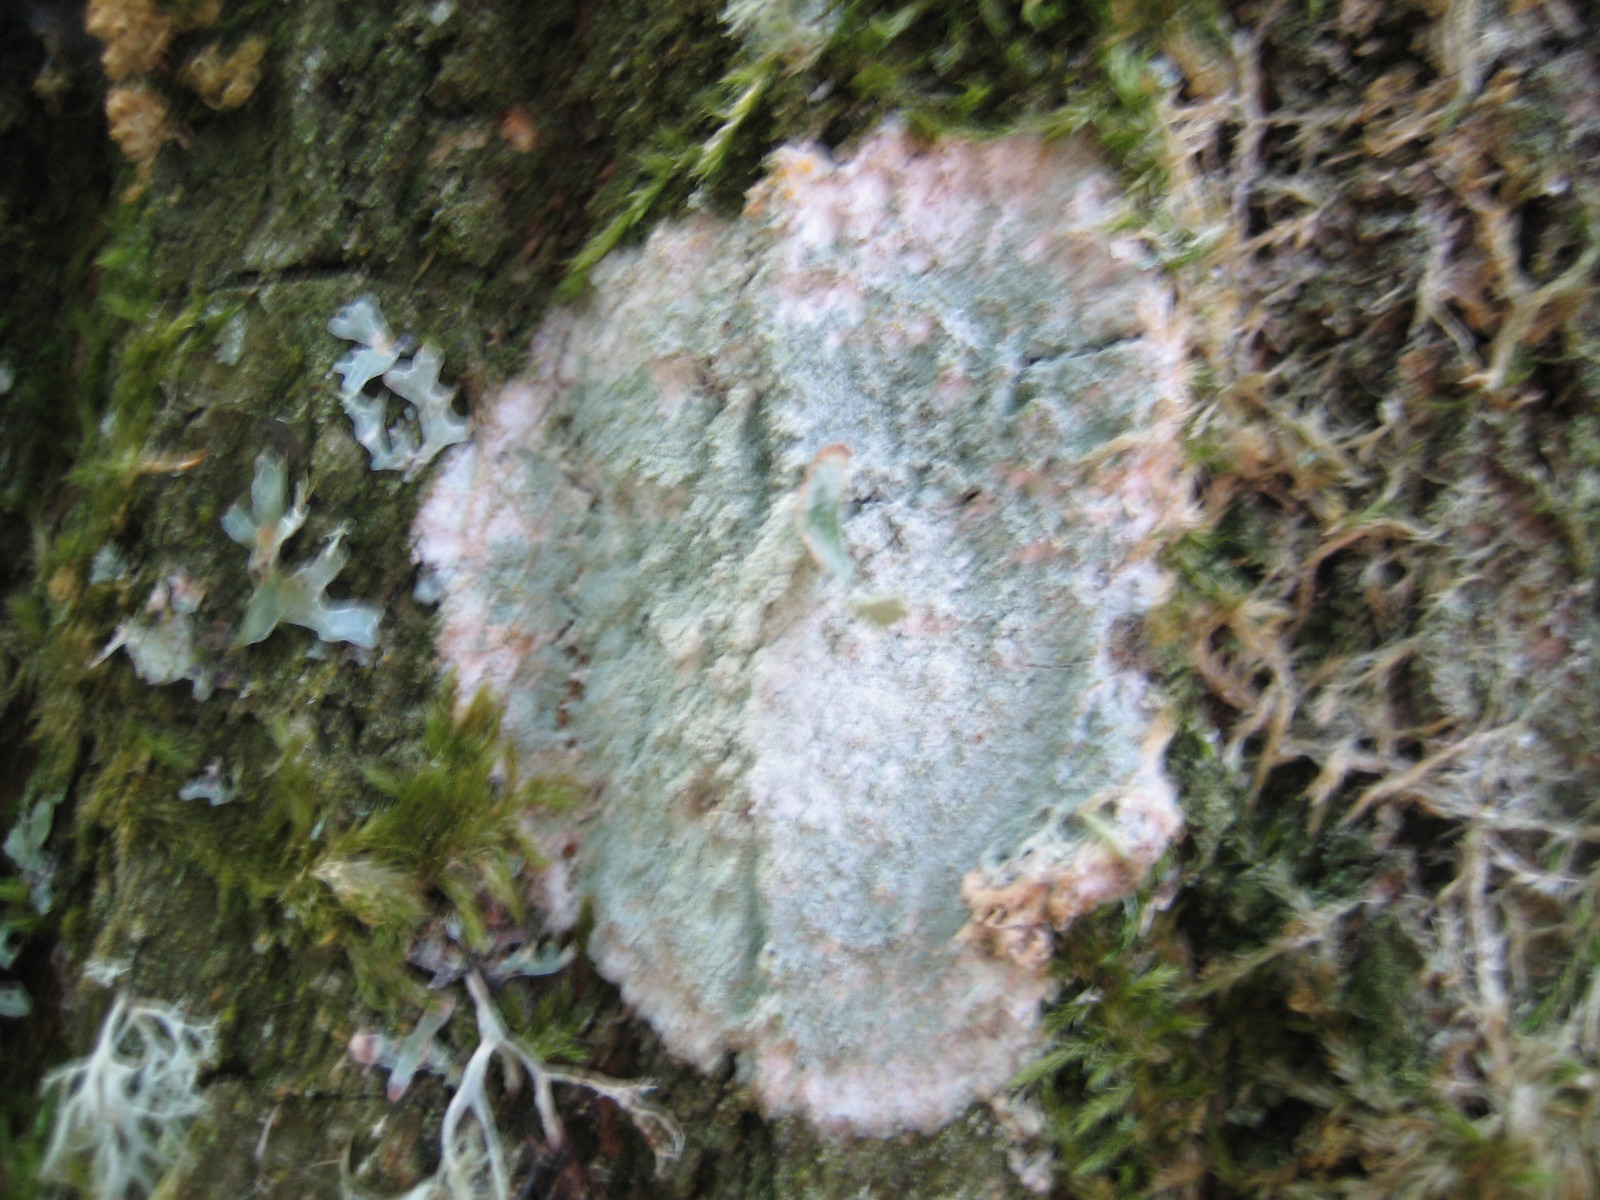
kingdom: Fungi
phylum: Ascomycota
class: Lecanoromycetes
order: Ostropales
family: Phlyctidaceae
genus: Phlyctis
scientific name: Phlyctis argena
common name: almindelig sølvlav
